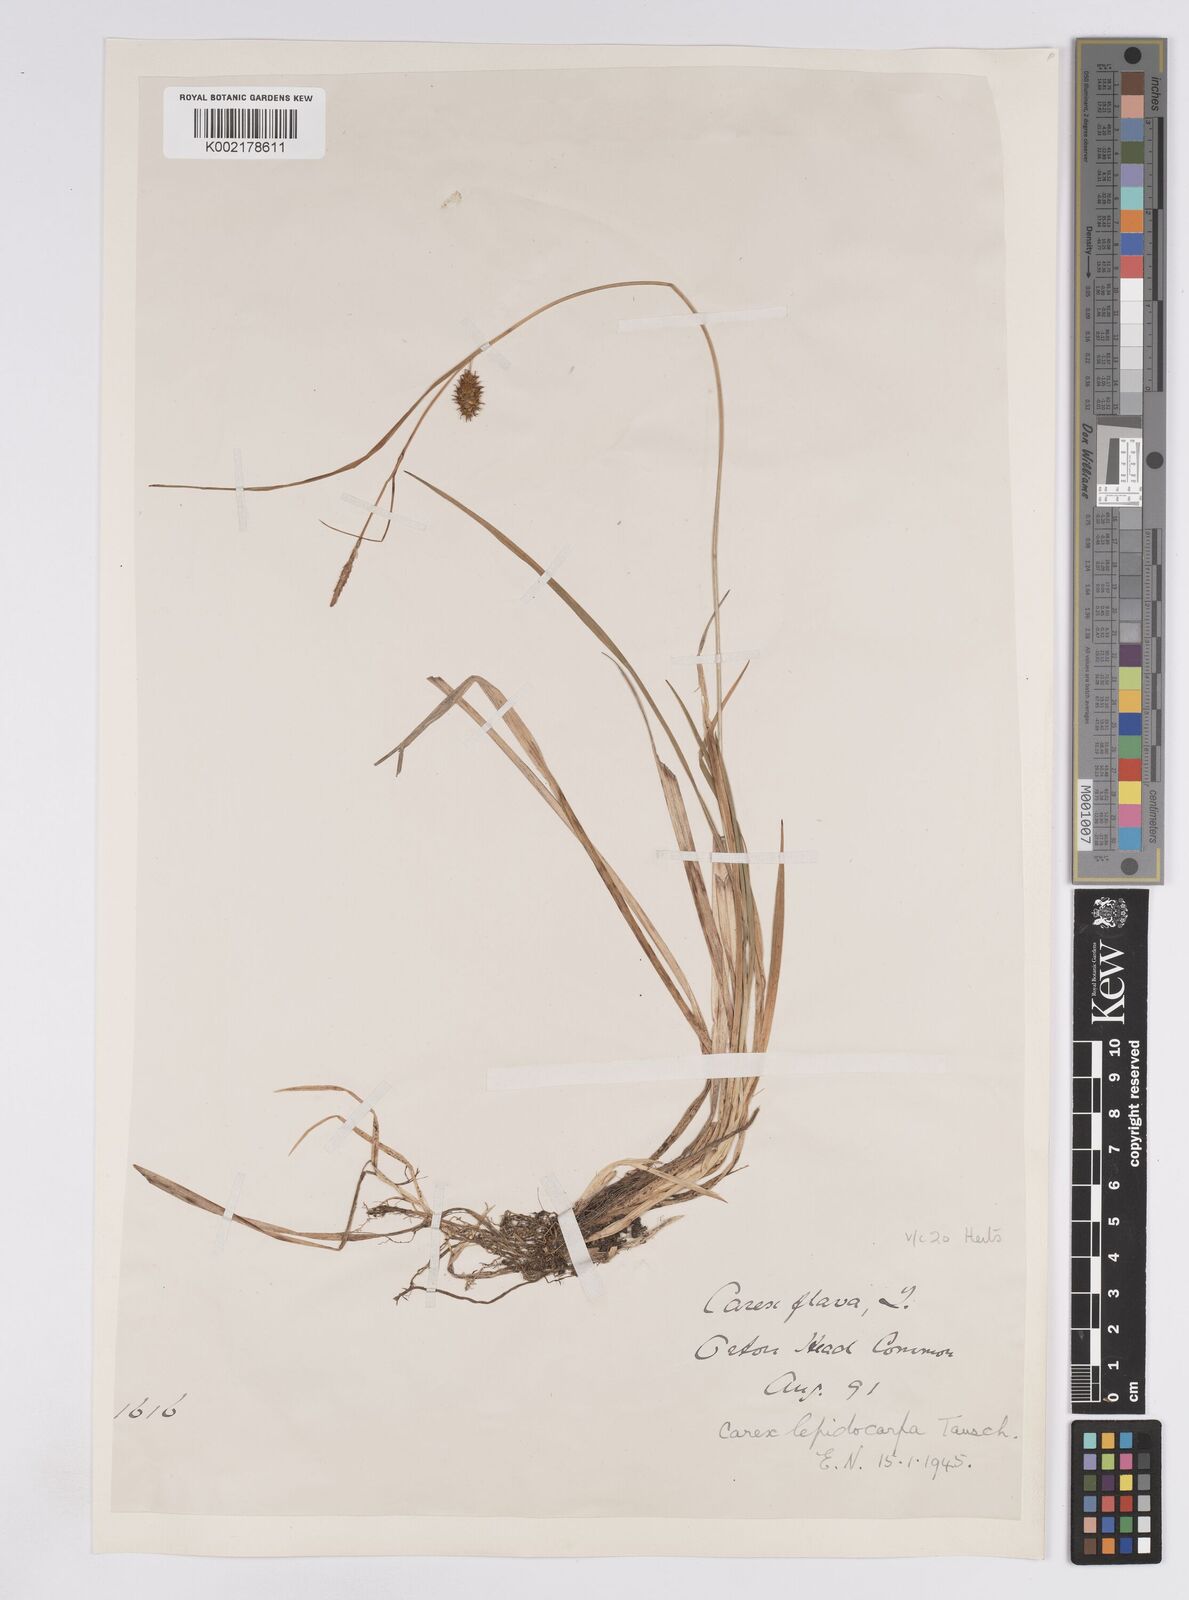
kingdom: Plantae
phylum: Tracheophyta
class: Liliopsida
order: Poales
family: Cyperaceae
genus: Carex
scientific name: Carex lepidocarpa
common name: Long-stalked yellow-sedge
